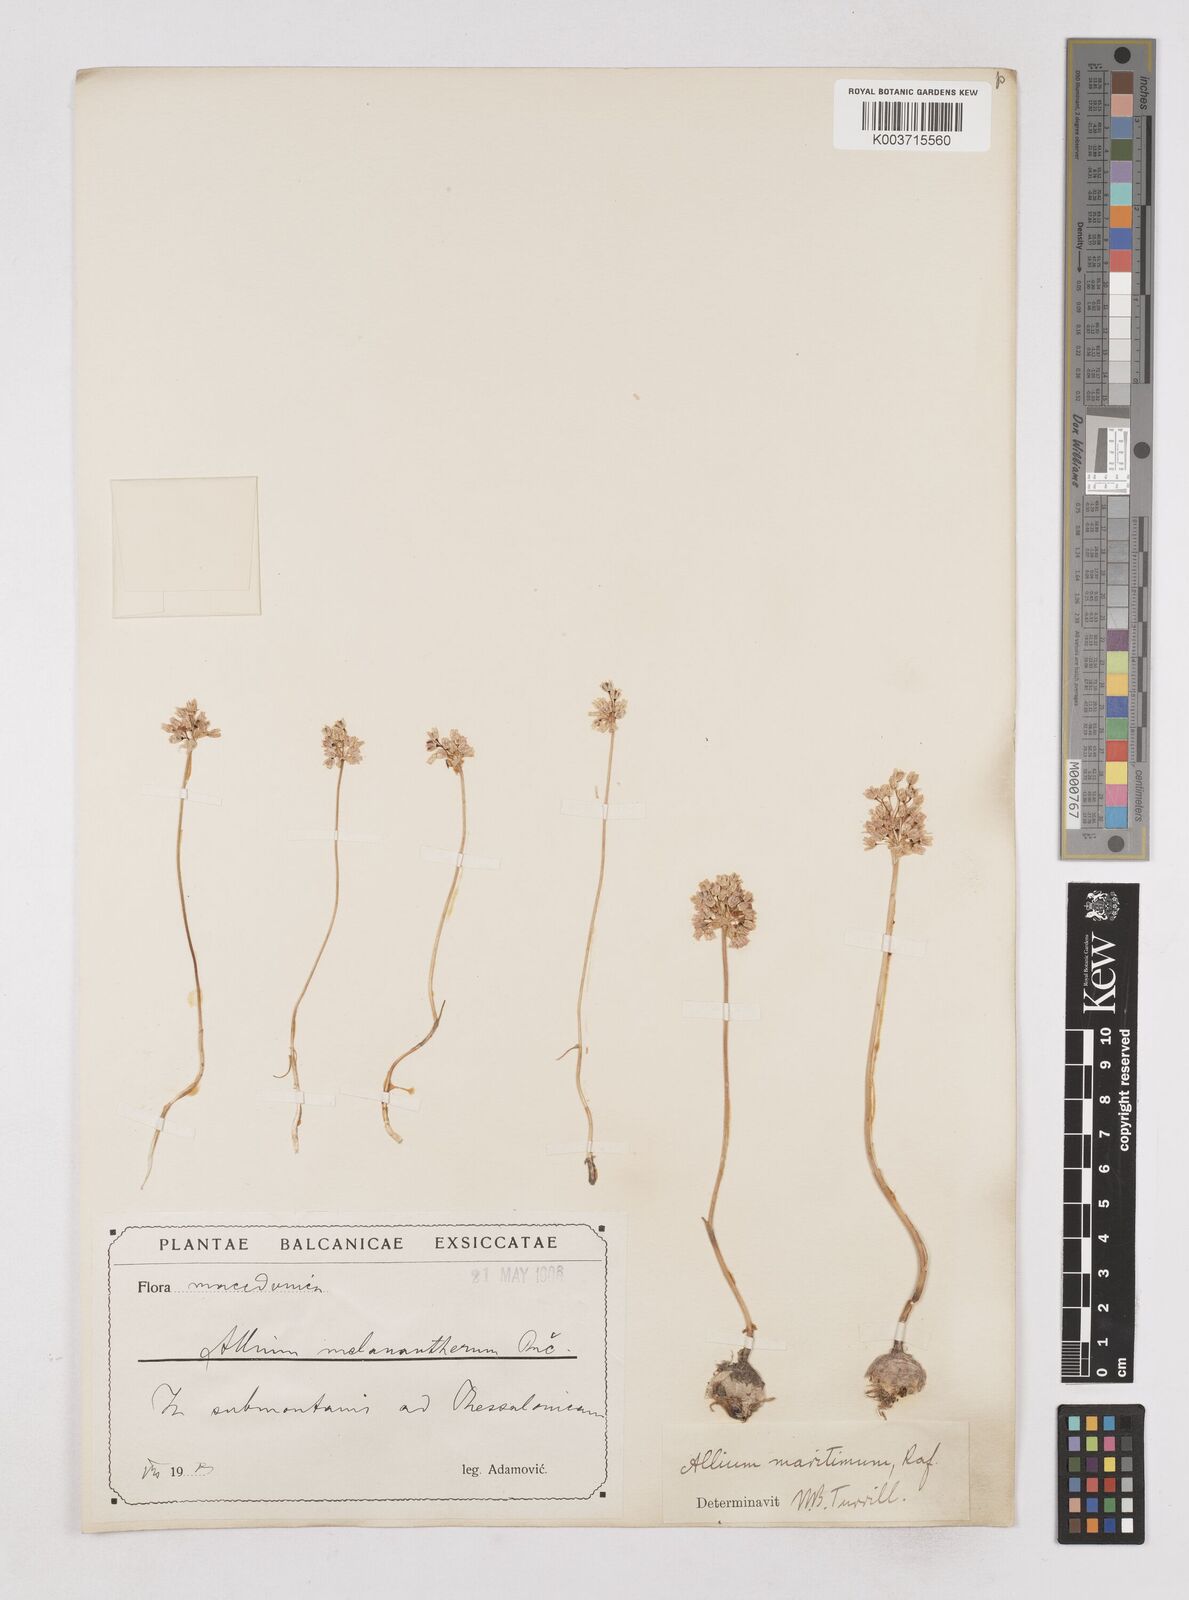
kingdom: Plantae
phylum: Tracheophyta
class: Liliopsida
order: Asparagales
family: Amaryllidaceae
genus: Allium
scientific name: Allium
